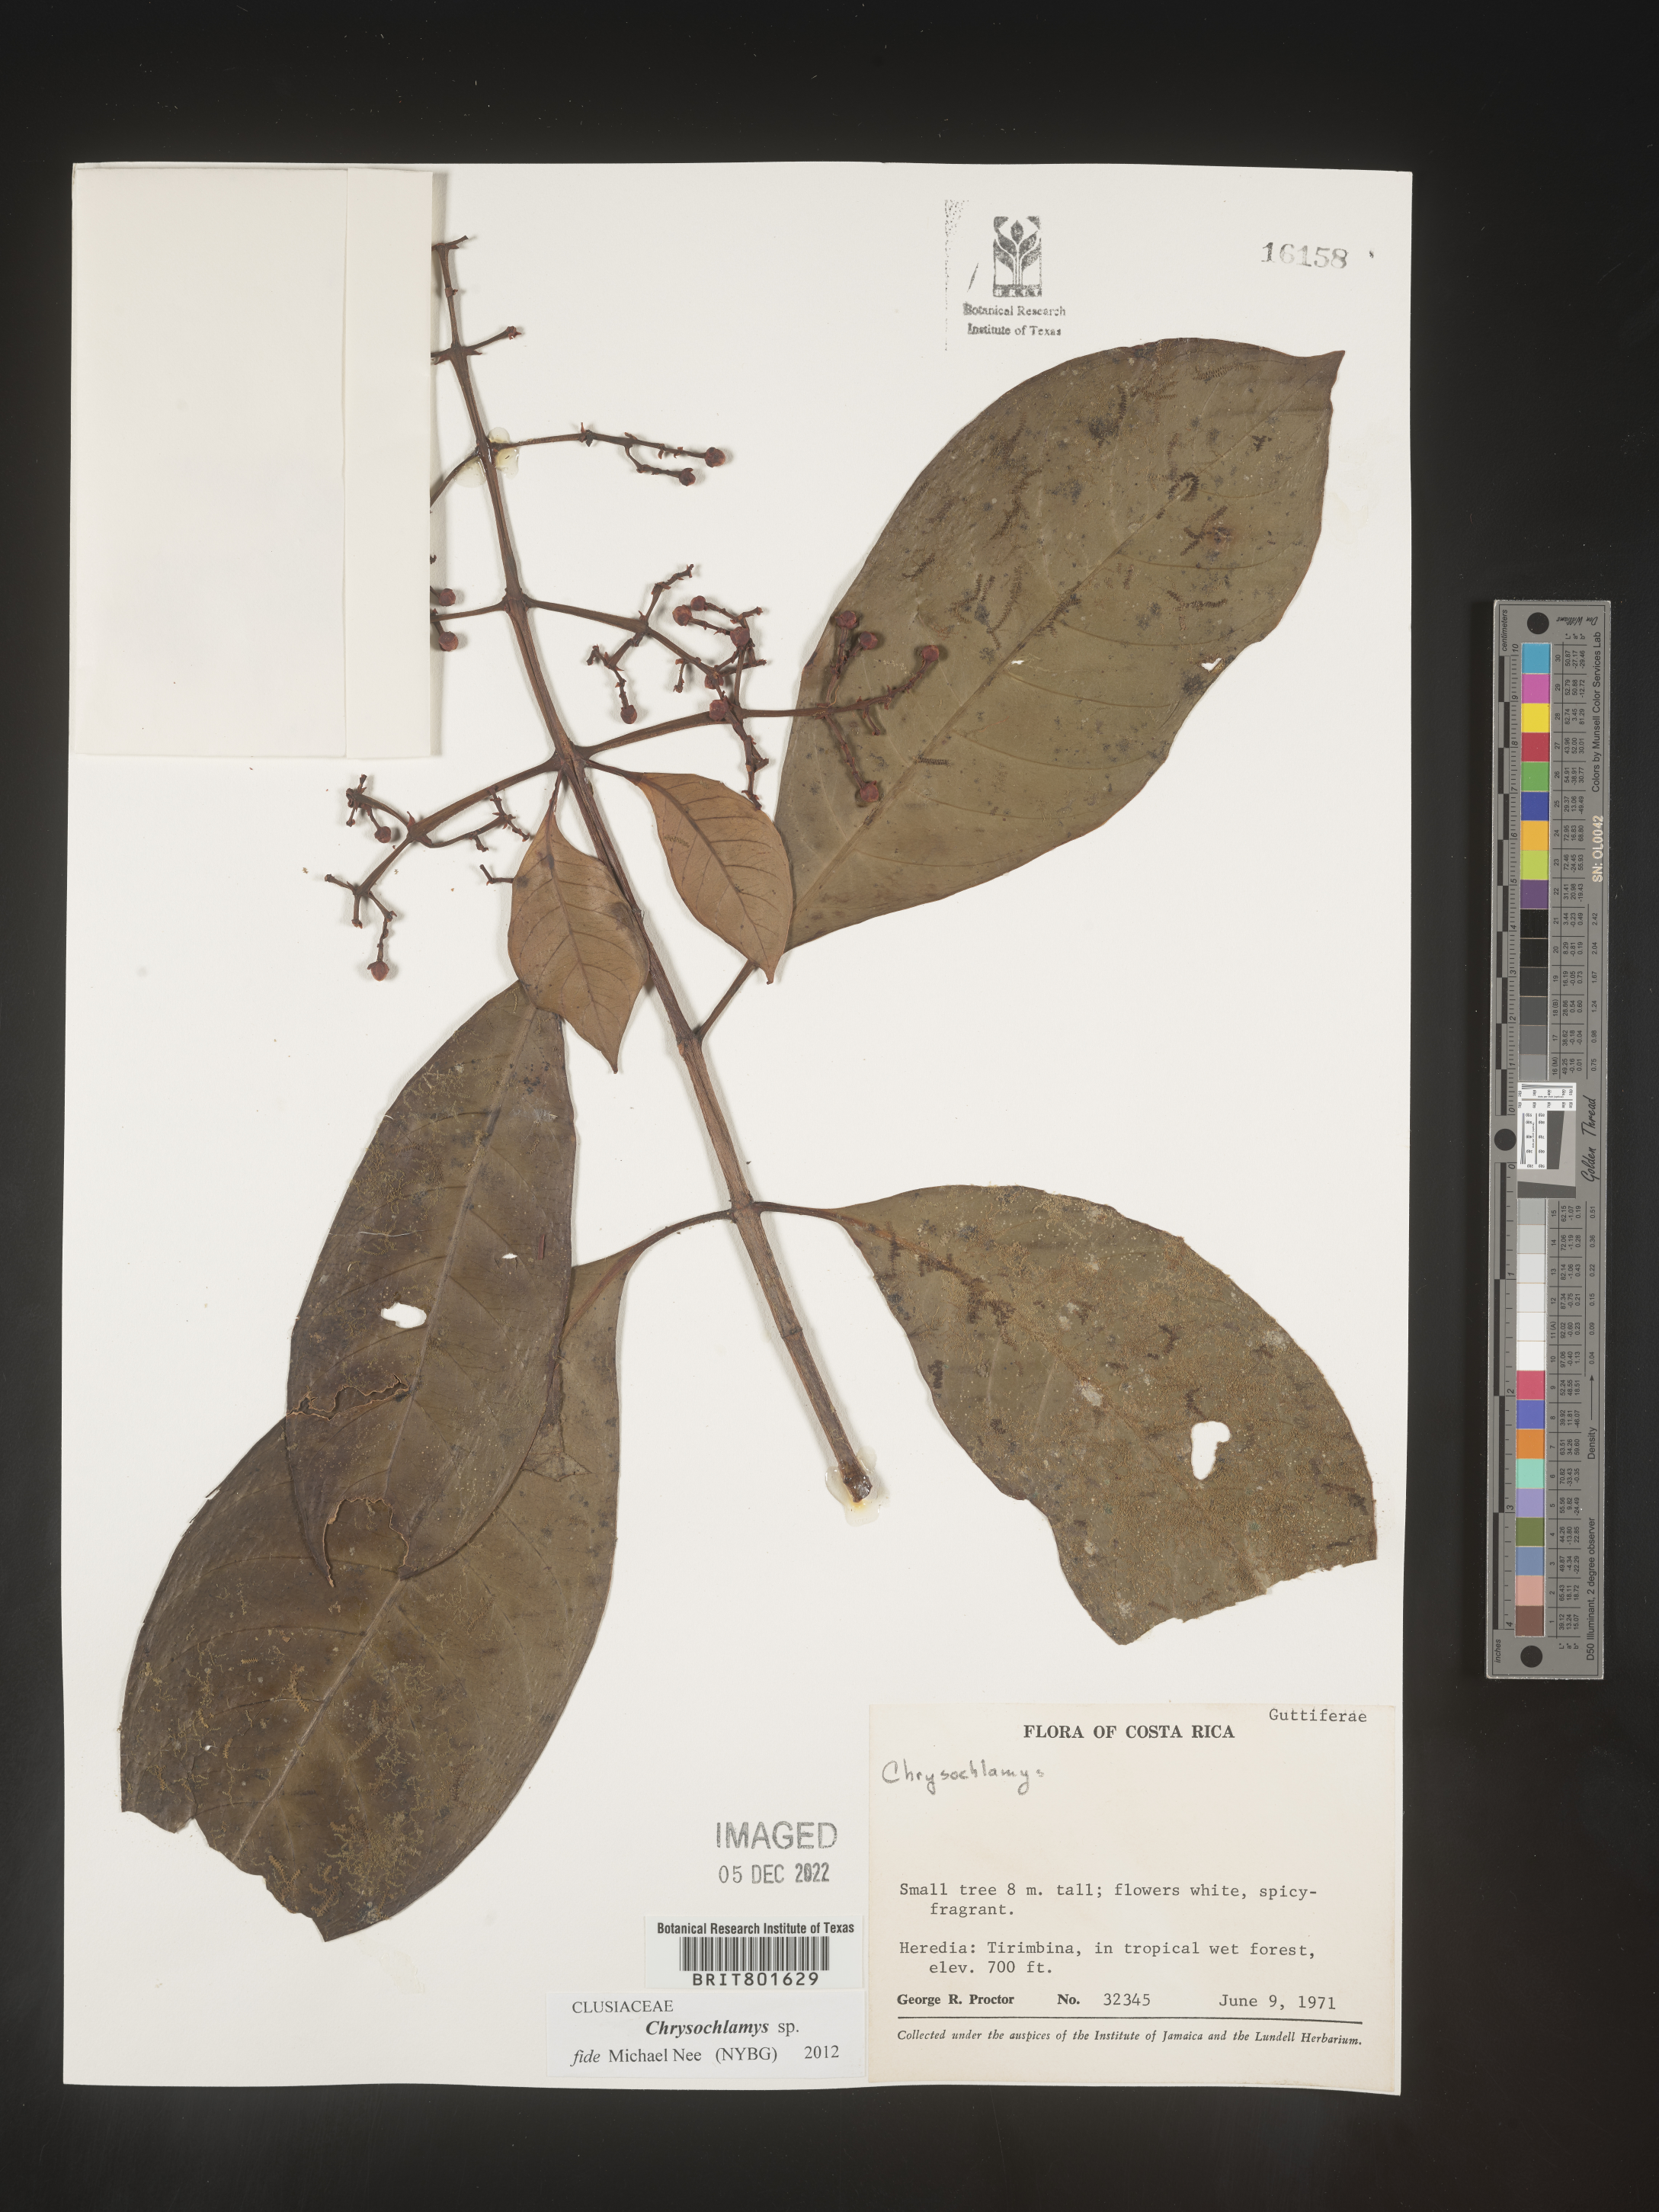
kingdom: Plantae
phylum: Tracheophyta
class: Magnoliopsida
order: Malpighiales
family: Clusiaceae
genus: Chrysochlamys
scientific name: Chrysochlamys
